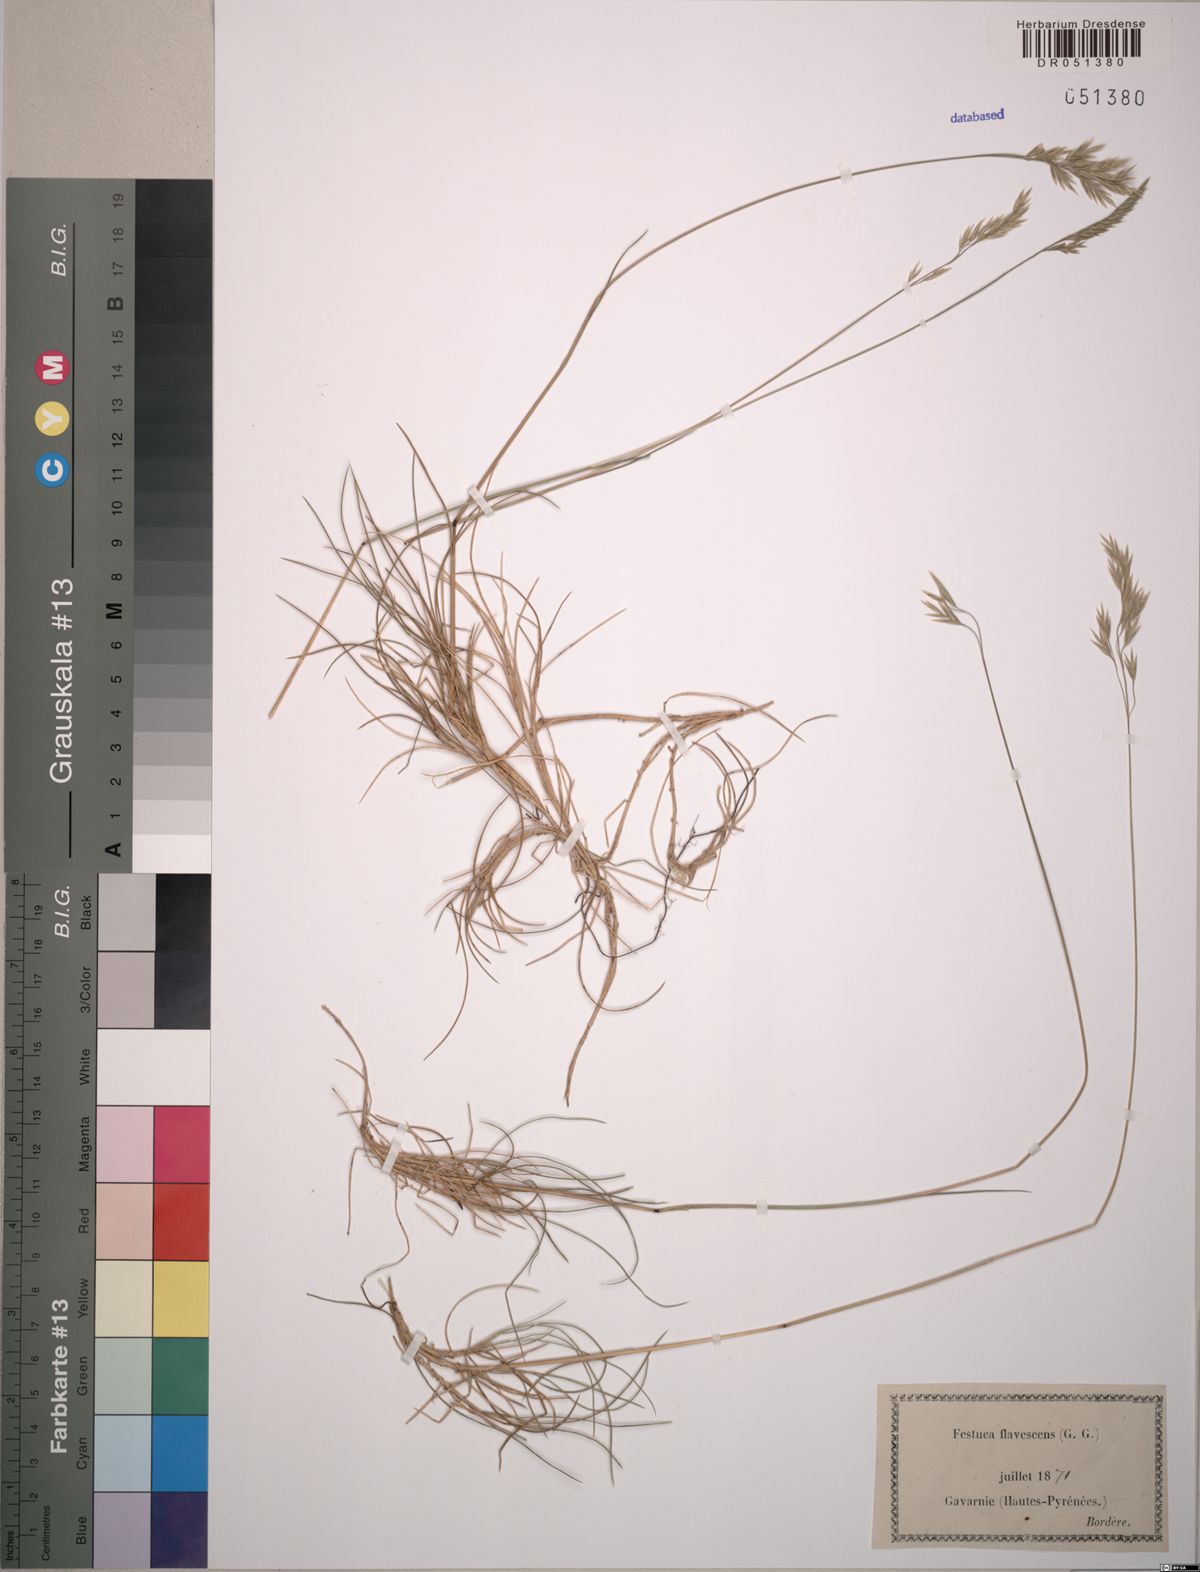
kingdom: Plantae
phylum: Tracheophyta
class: Liliopsida
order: Poales
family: Poaceae
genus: Festuca
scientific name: Festuca flavescens
